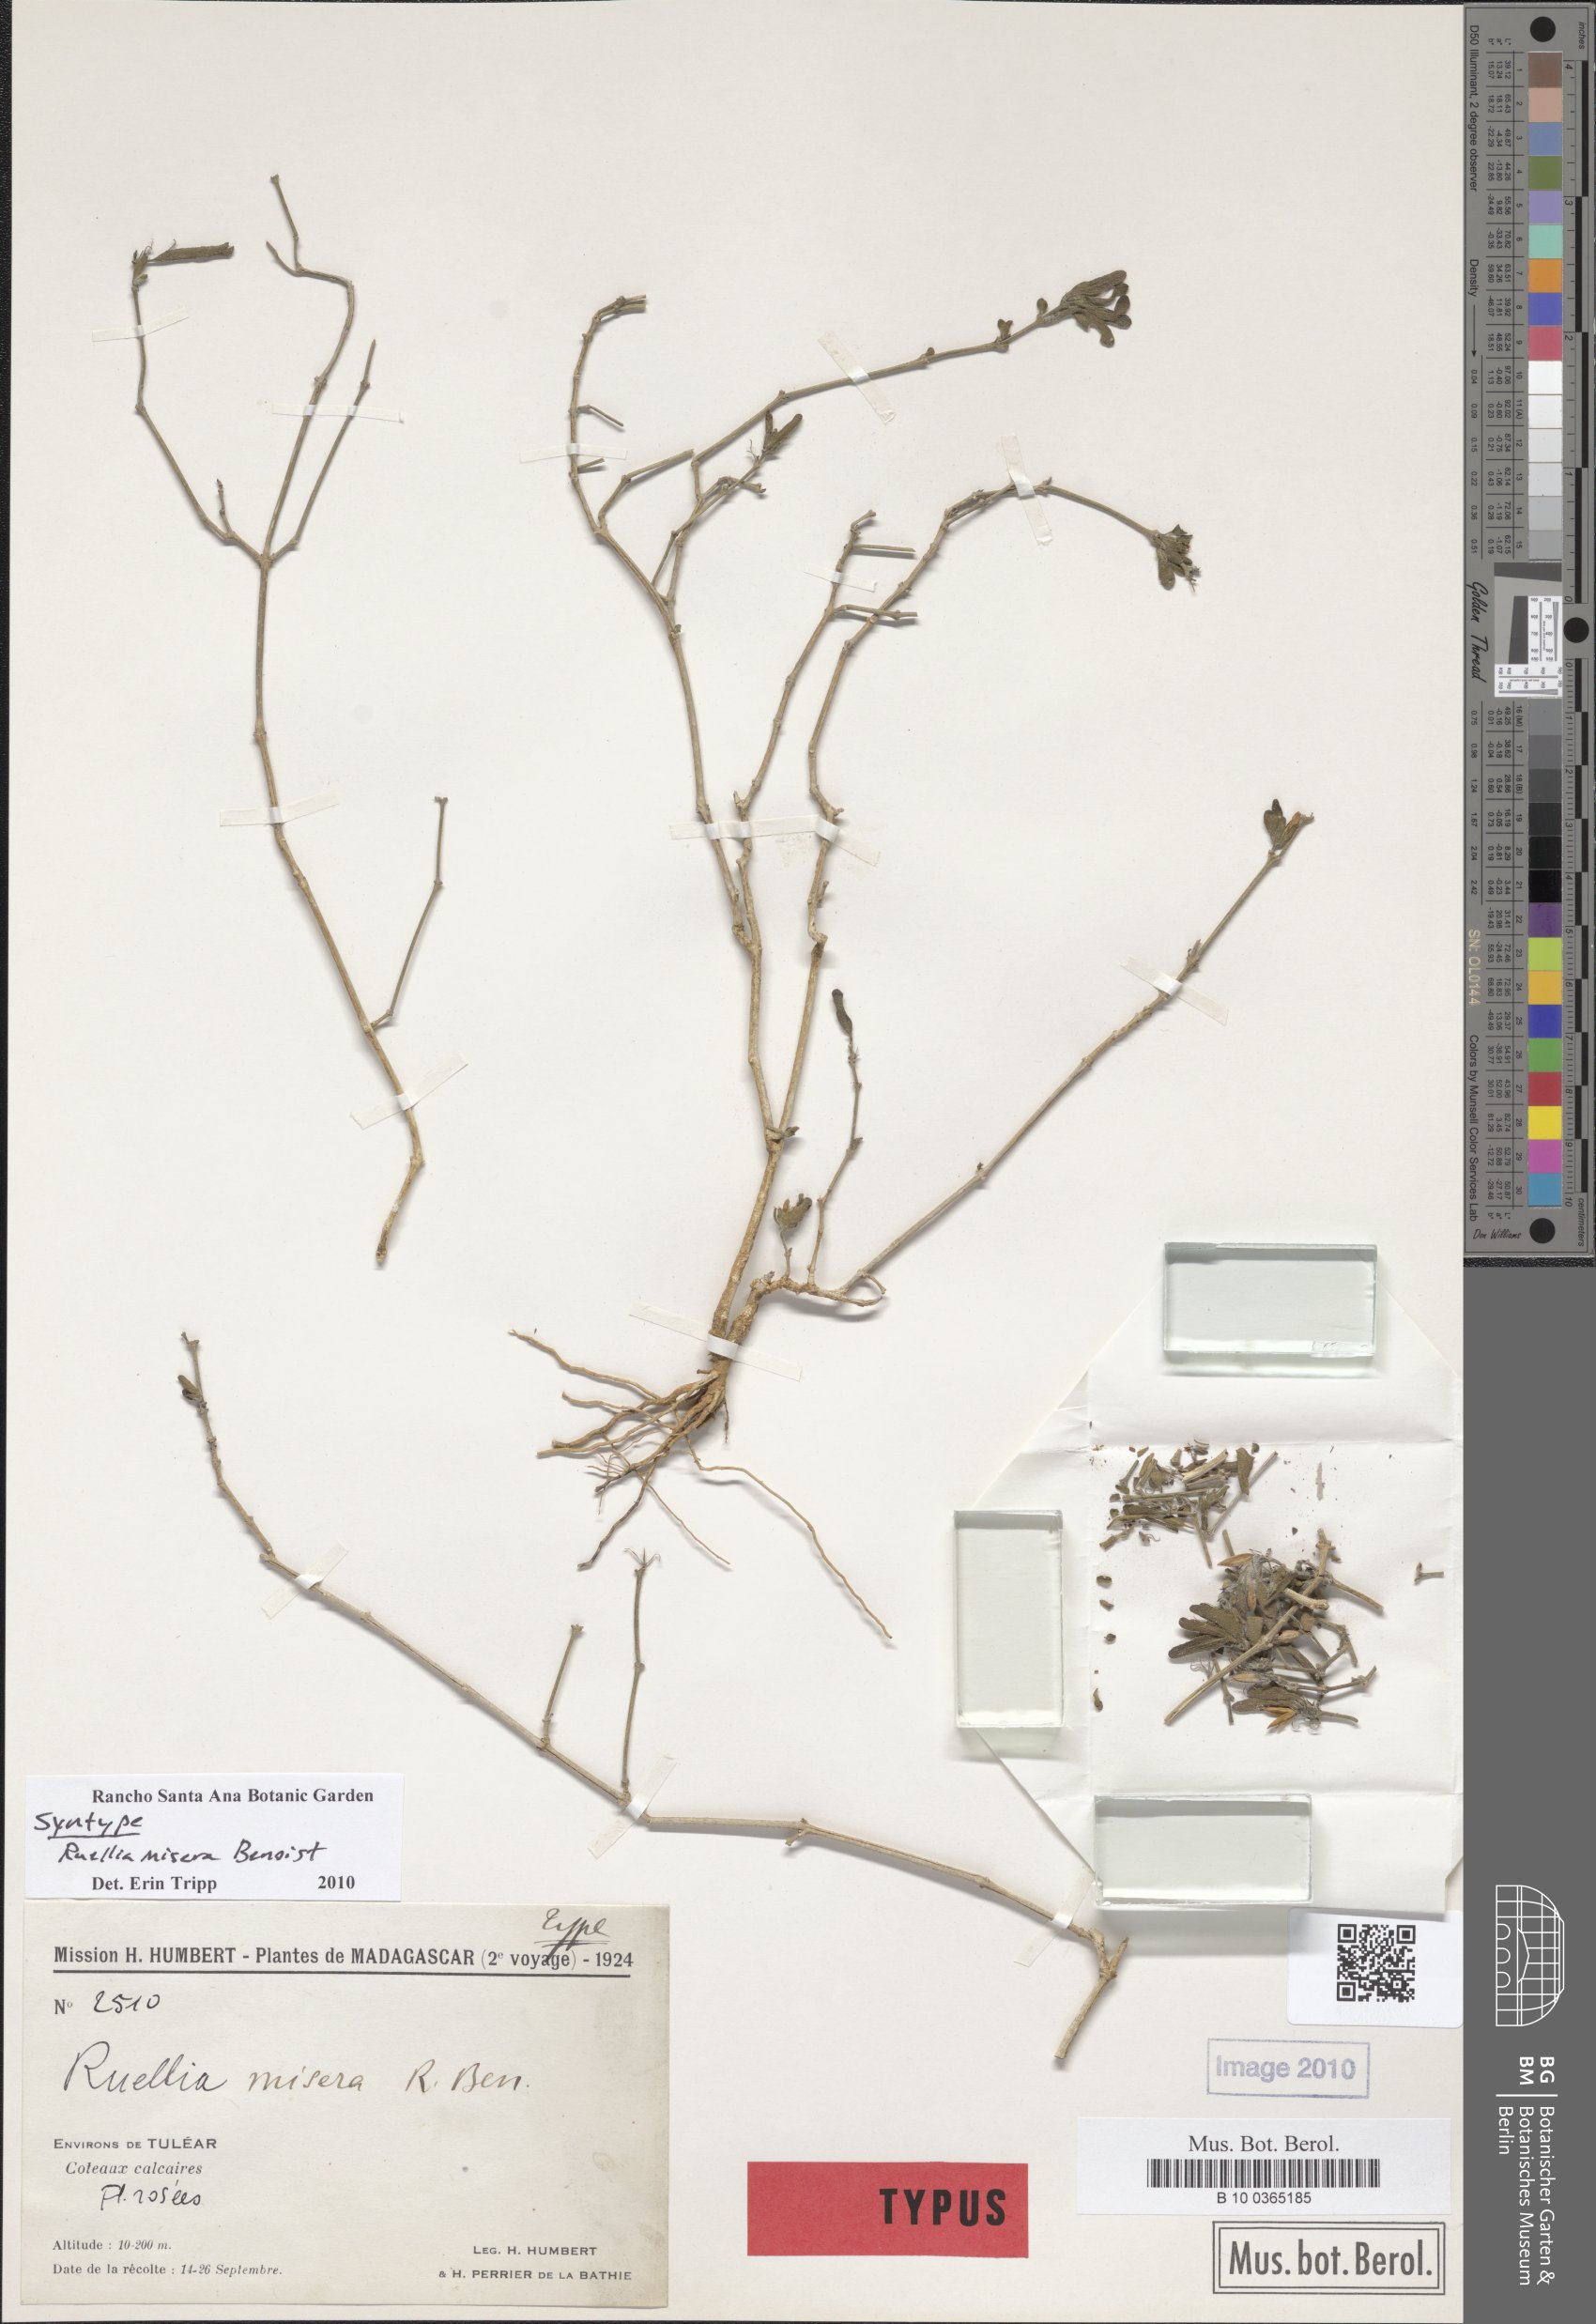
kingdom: Plantae
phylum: Tracheophyta
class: Magnoliopsida
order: Lamiales
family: Acanthaceae
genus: Ruellia
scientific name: Ruellia misera
